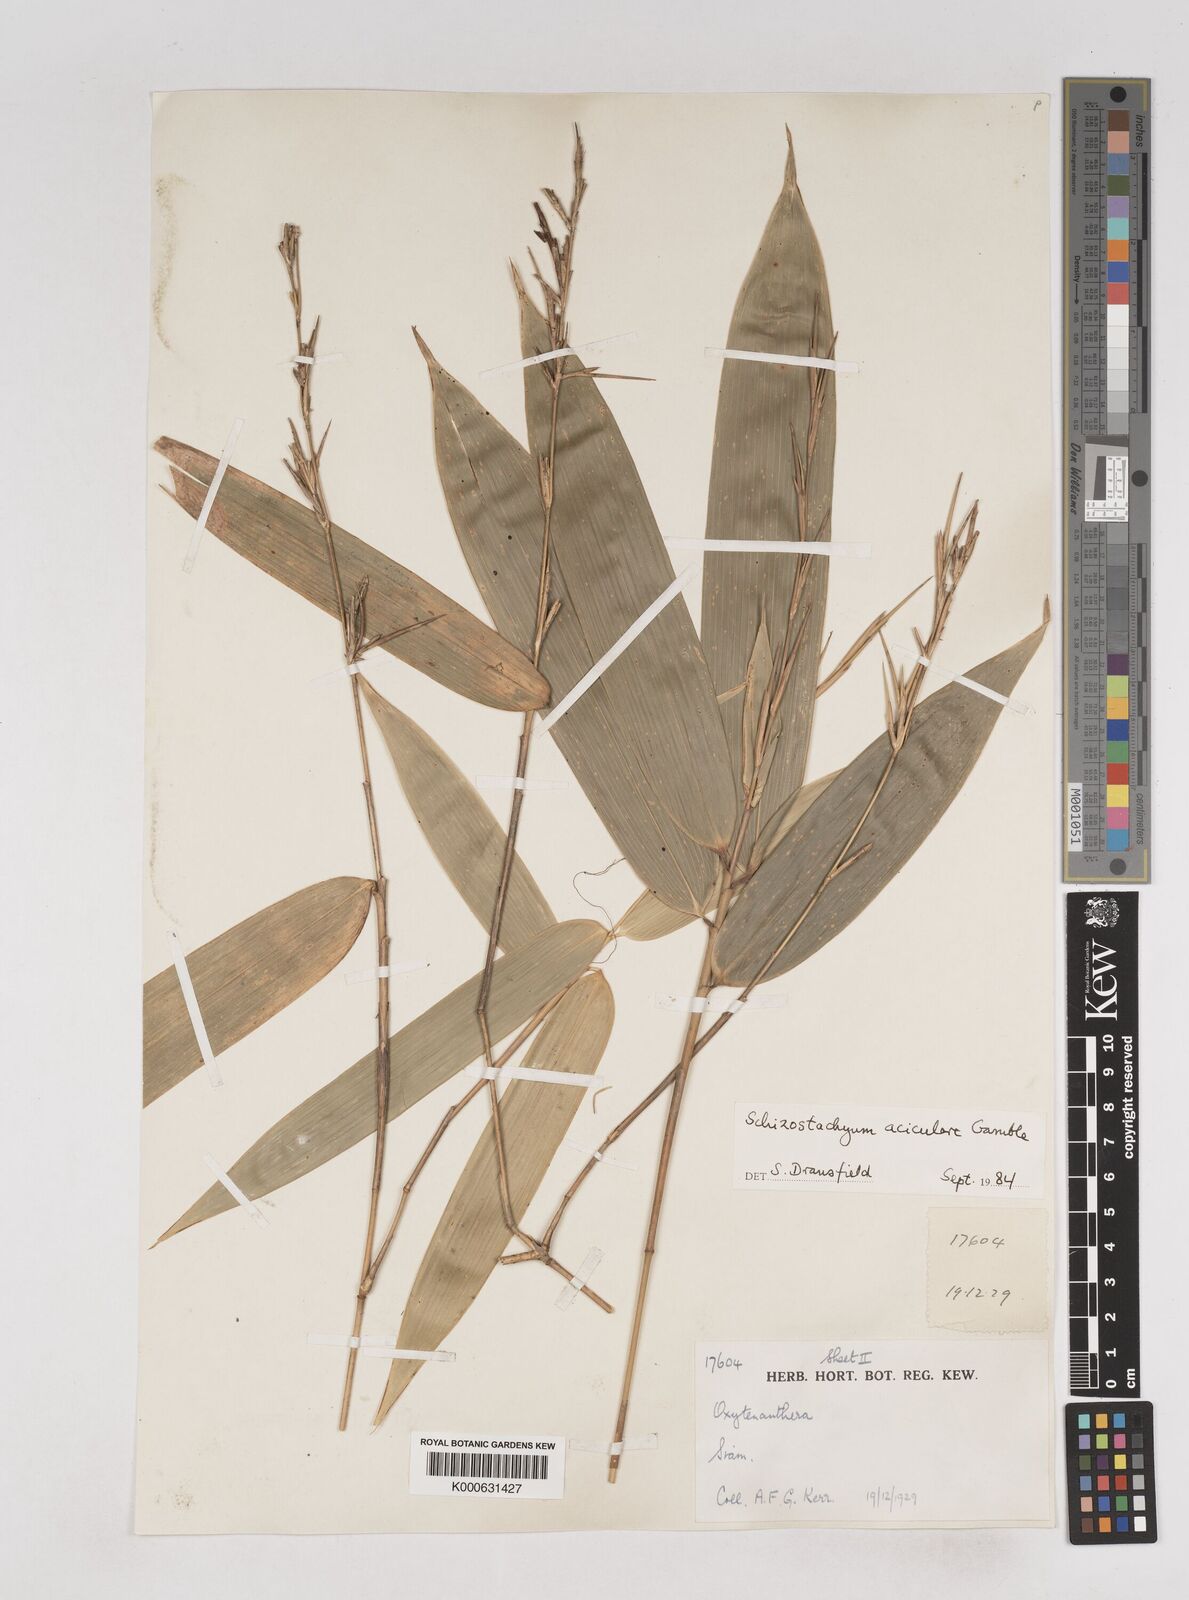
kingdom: Plantae
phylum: Tracheophyta
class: Liliopsida
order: Poales
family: Poaceae
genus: Schizostachyum
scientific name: Schizostachyum aciculare
